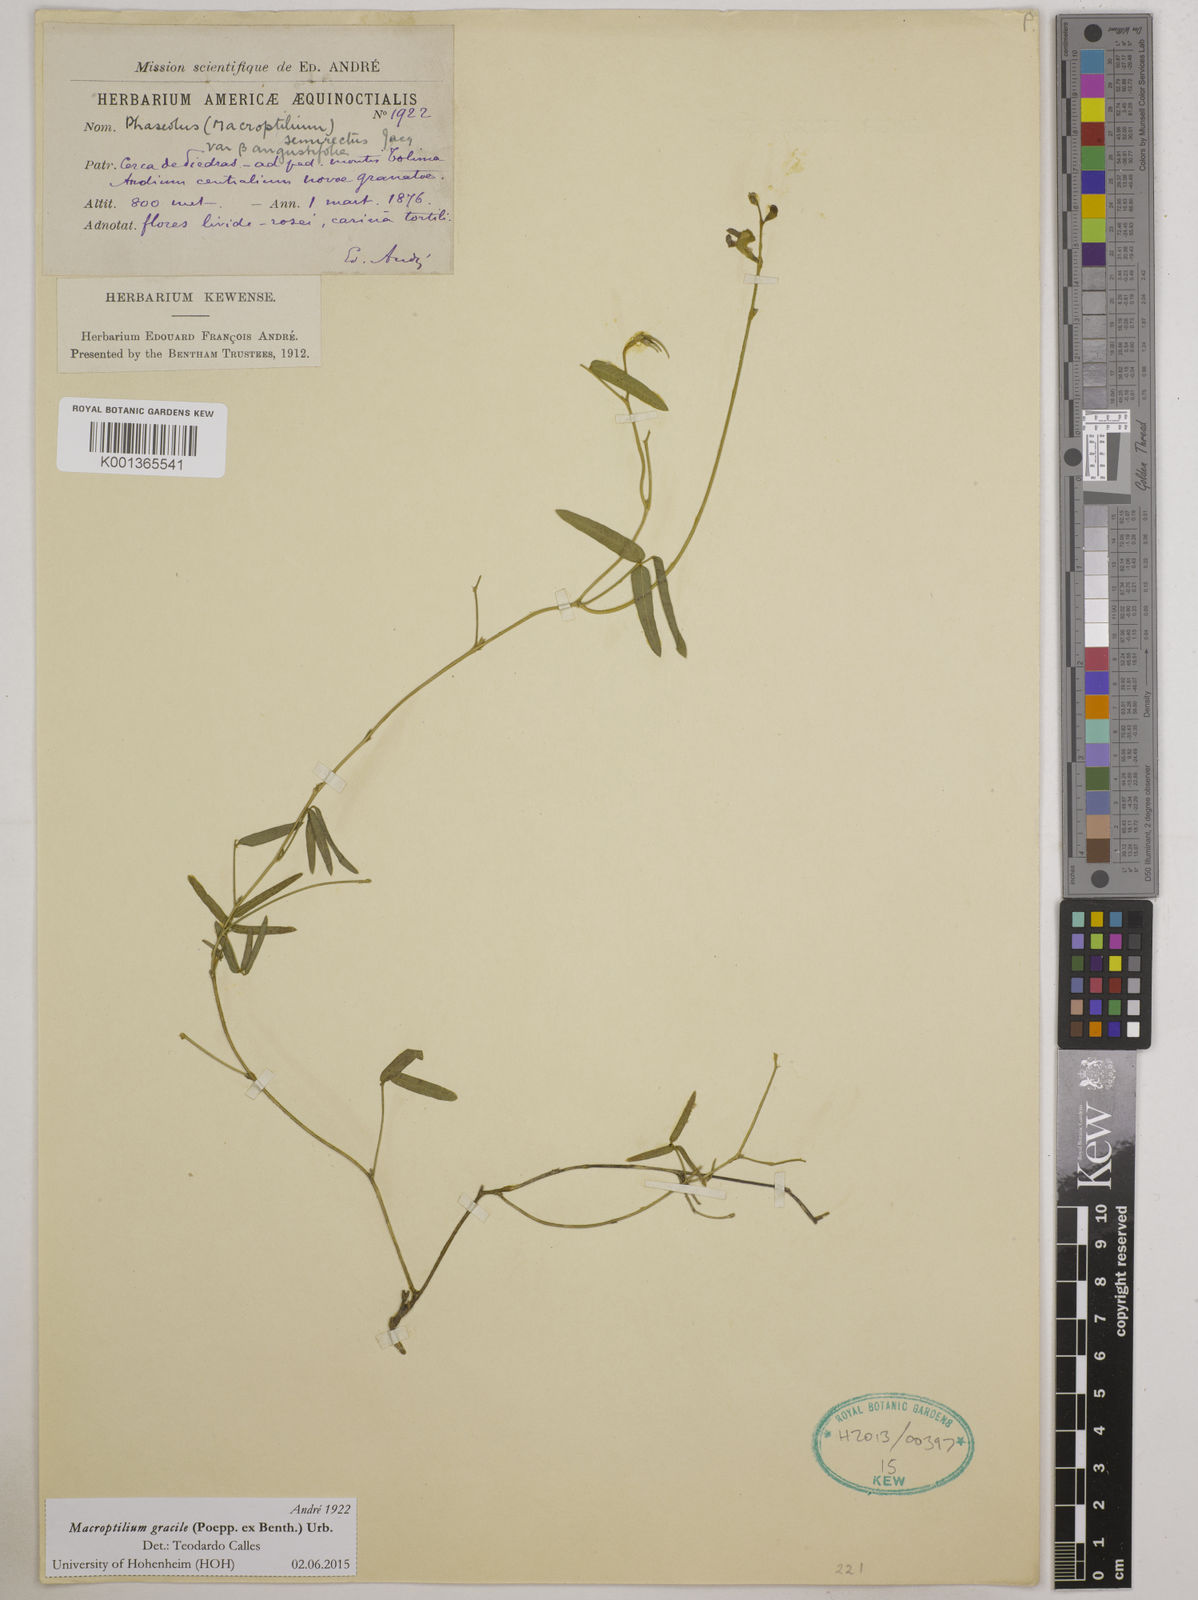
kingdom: Plantae
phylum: Tracheophyta
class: Magnoliopsida
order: Fabales
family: Fabaceae
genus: Macroptilium
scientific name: Macroptilium gracile
